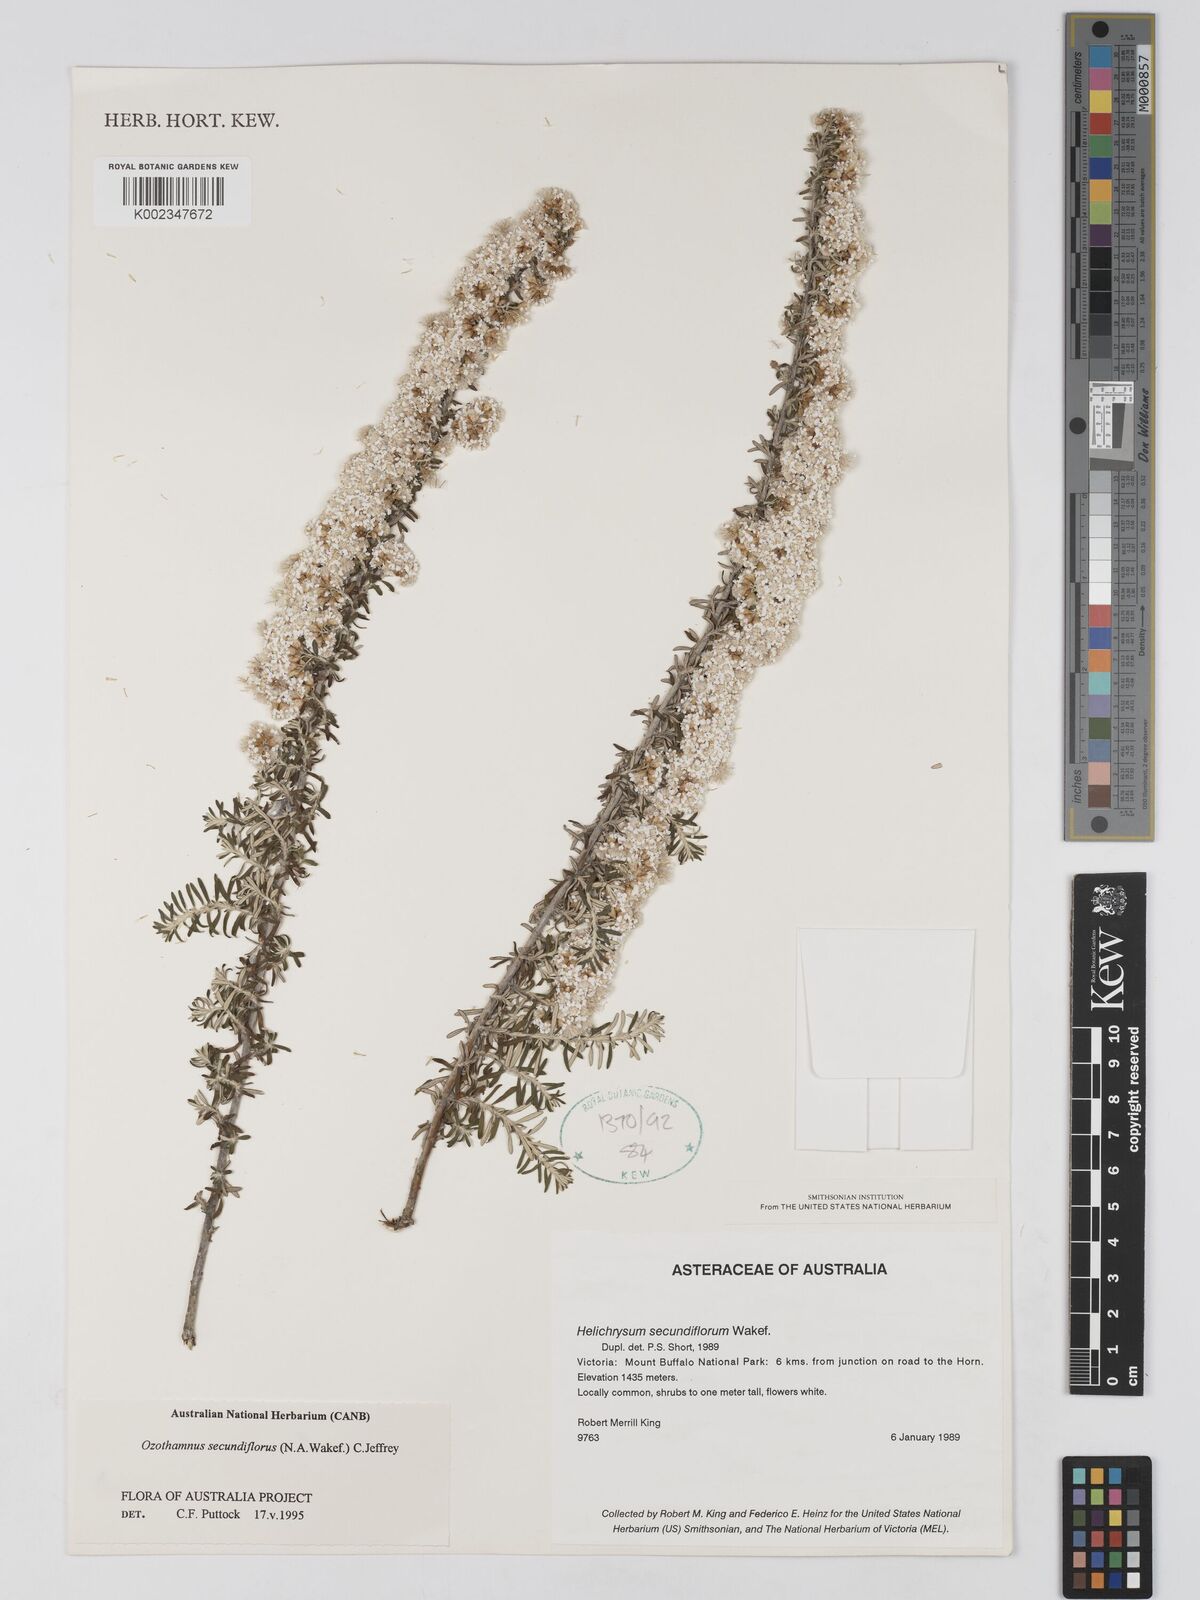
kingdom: Plantae
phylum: Tracheophyta
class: Magnoliopsida
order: Asterales
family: Asteraceae
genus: Ozothamnus
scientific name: Ozothamnus secundiflorus
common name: Cascade everlasting
